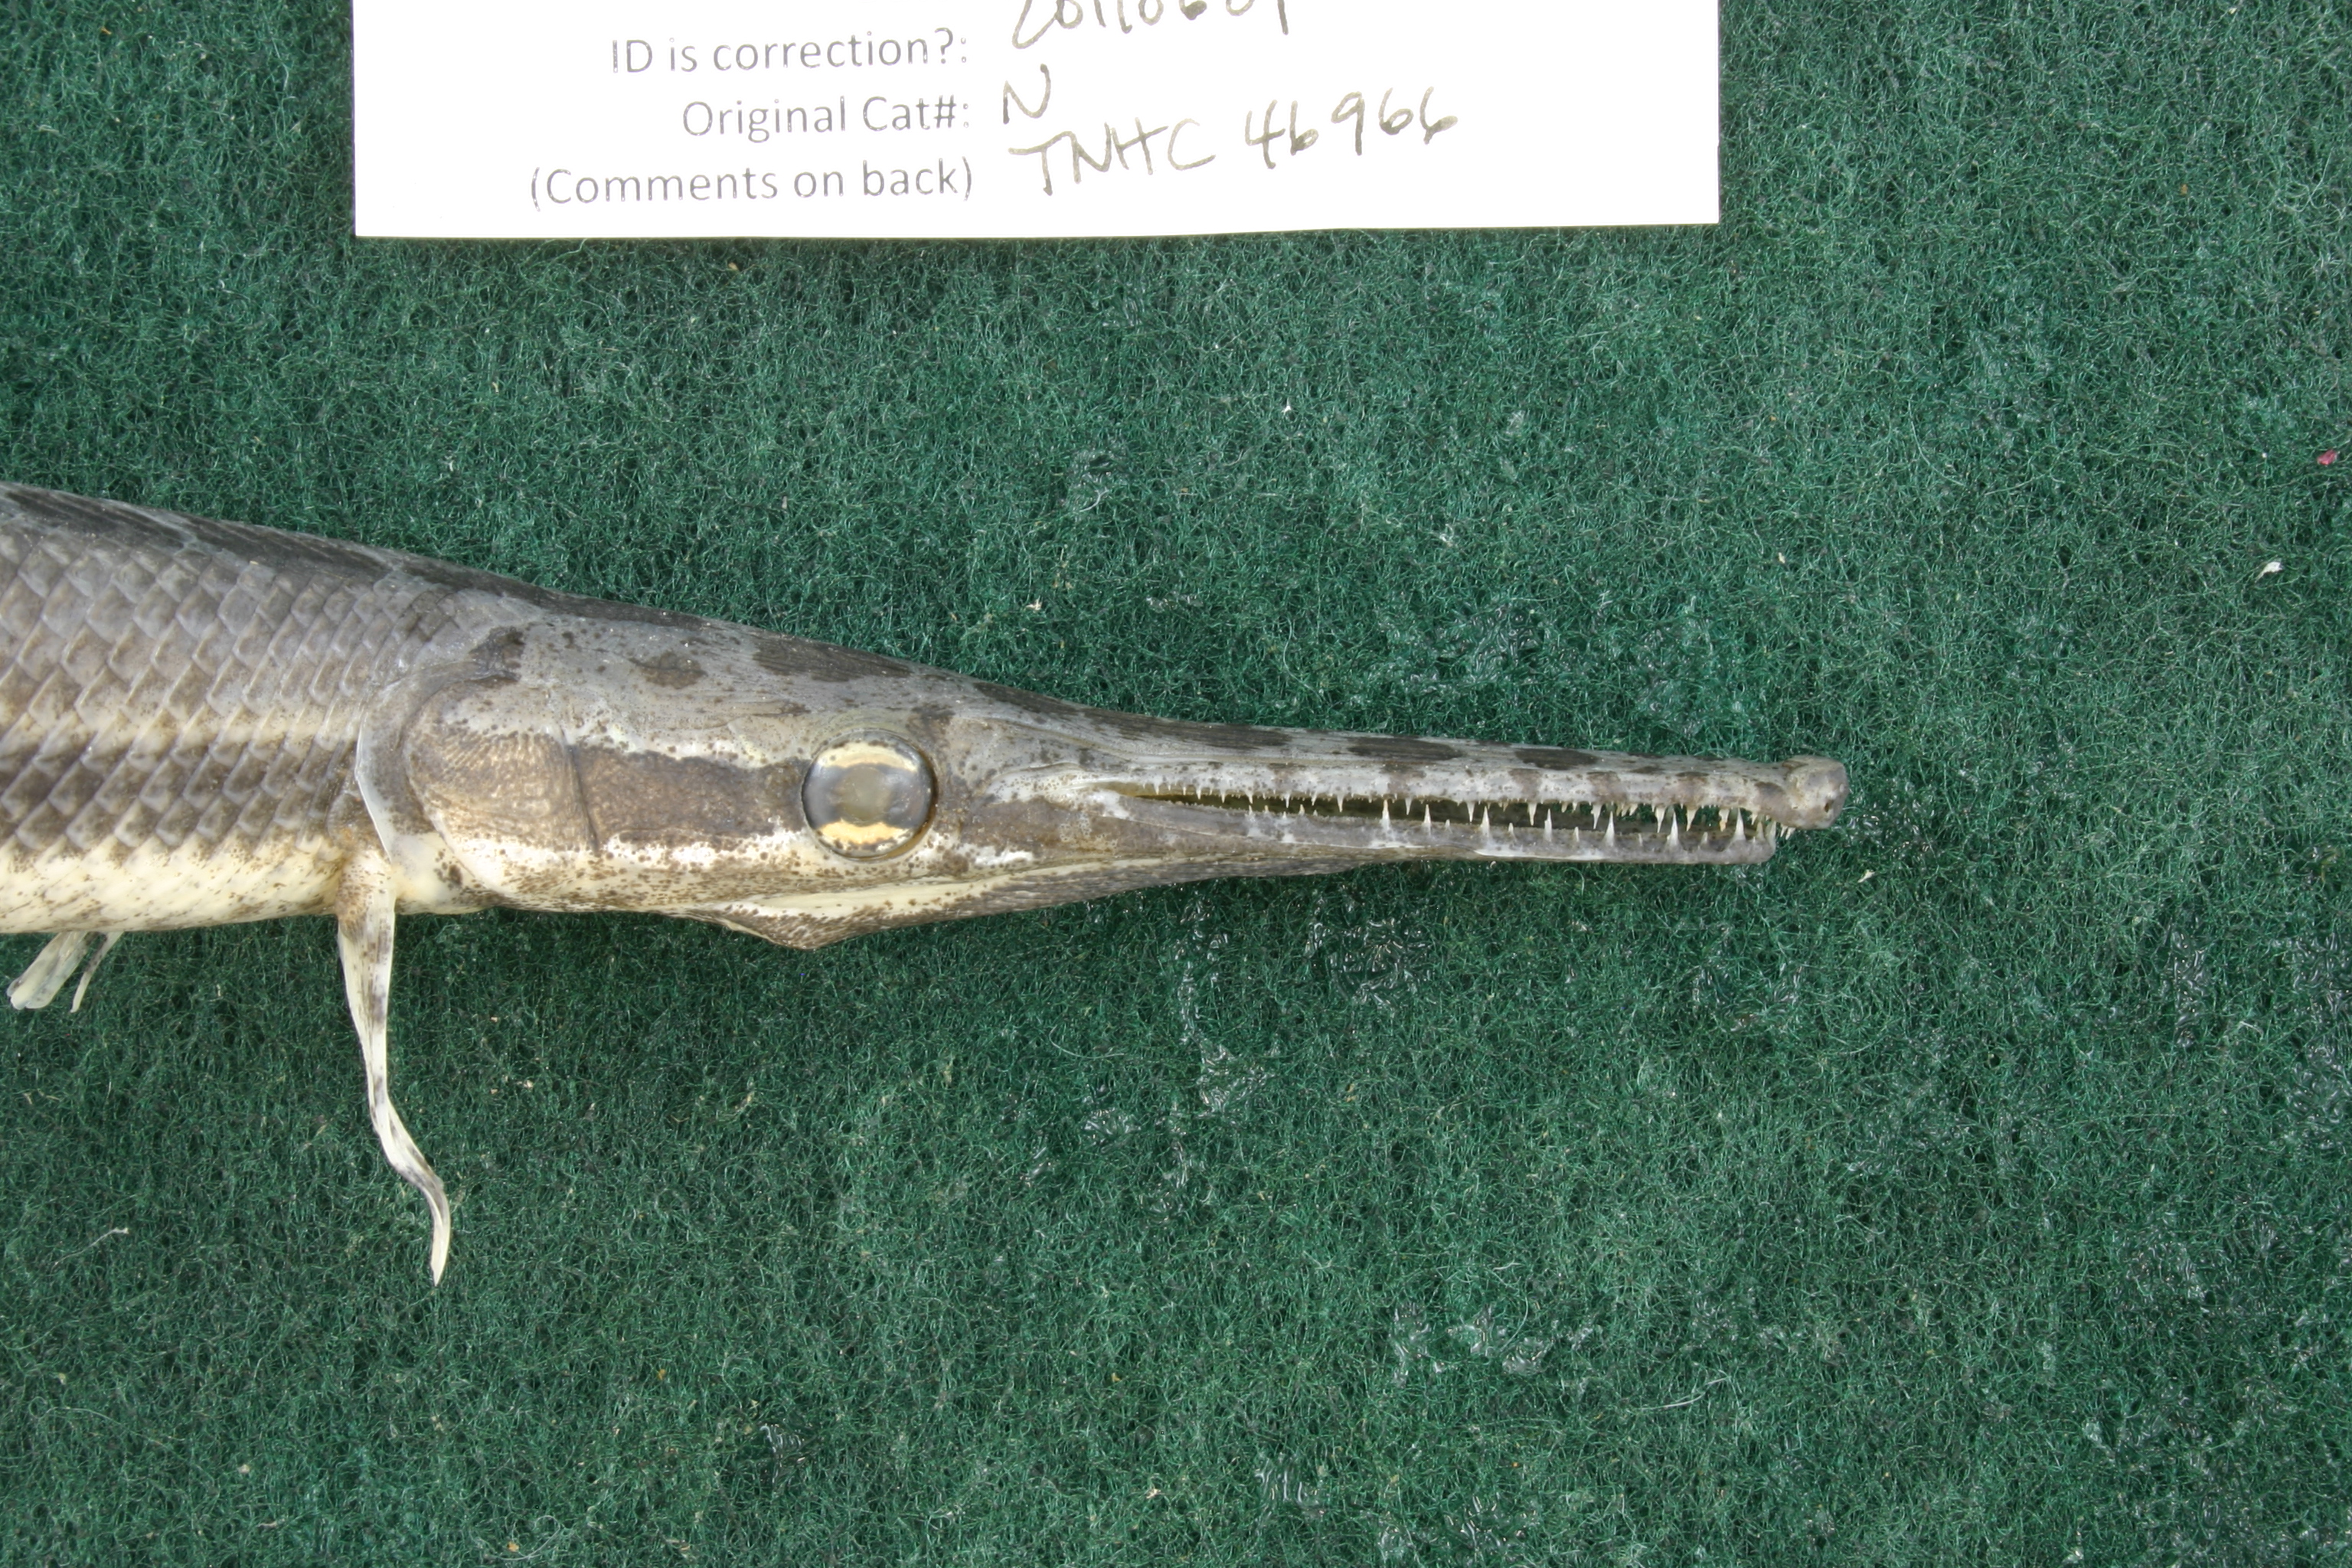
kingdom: Animalia
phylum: Chordata
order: Lepisosteiformes
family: Lepisosteidae
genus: Lepisosteus
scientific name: Lepisosteus oculatus
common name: Spotted gar
